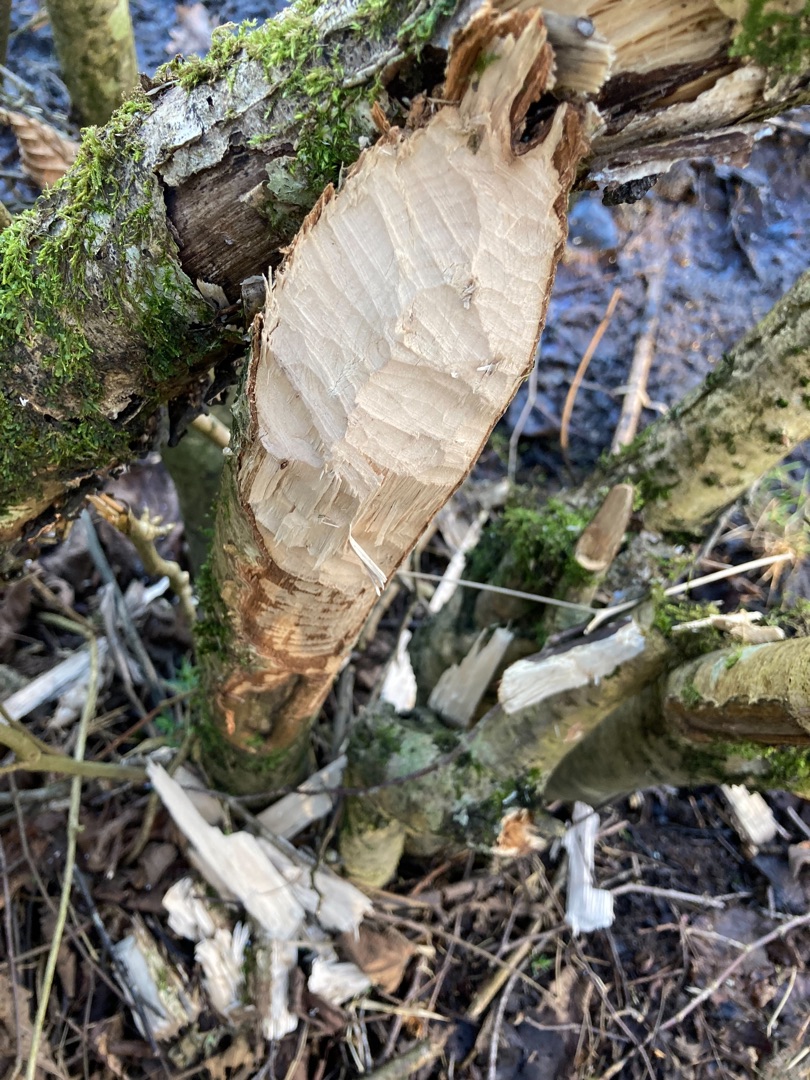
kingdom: Animalia
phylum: Chordata
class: Mammalia
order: Rodentia
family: Castoridae
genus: Castor
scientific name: Castor fiber
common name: Bæver
